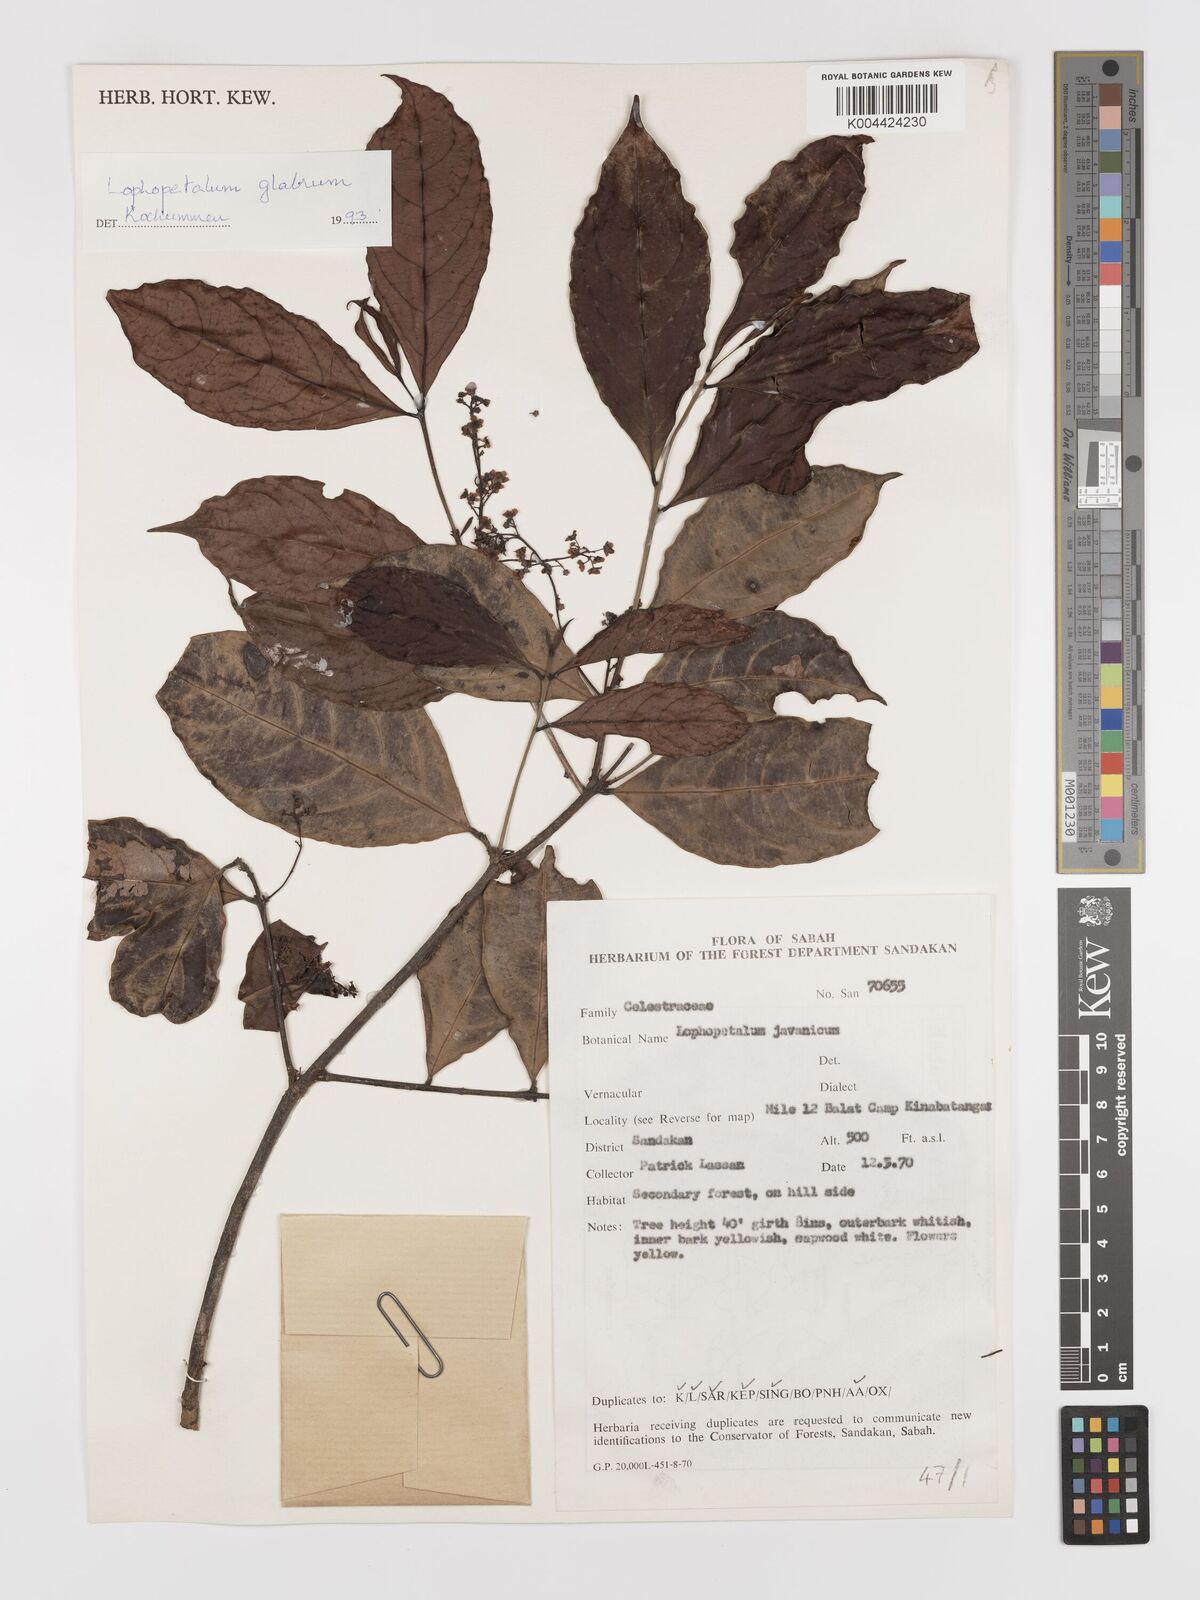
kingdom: Plantae
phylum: Tracheophyta
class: Magnoliopsida
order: Celastrales
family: Celastraceae
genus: Lophopetalum
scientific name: Lophopetalum glabrum
